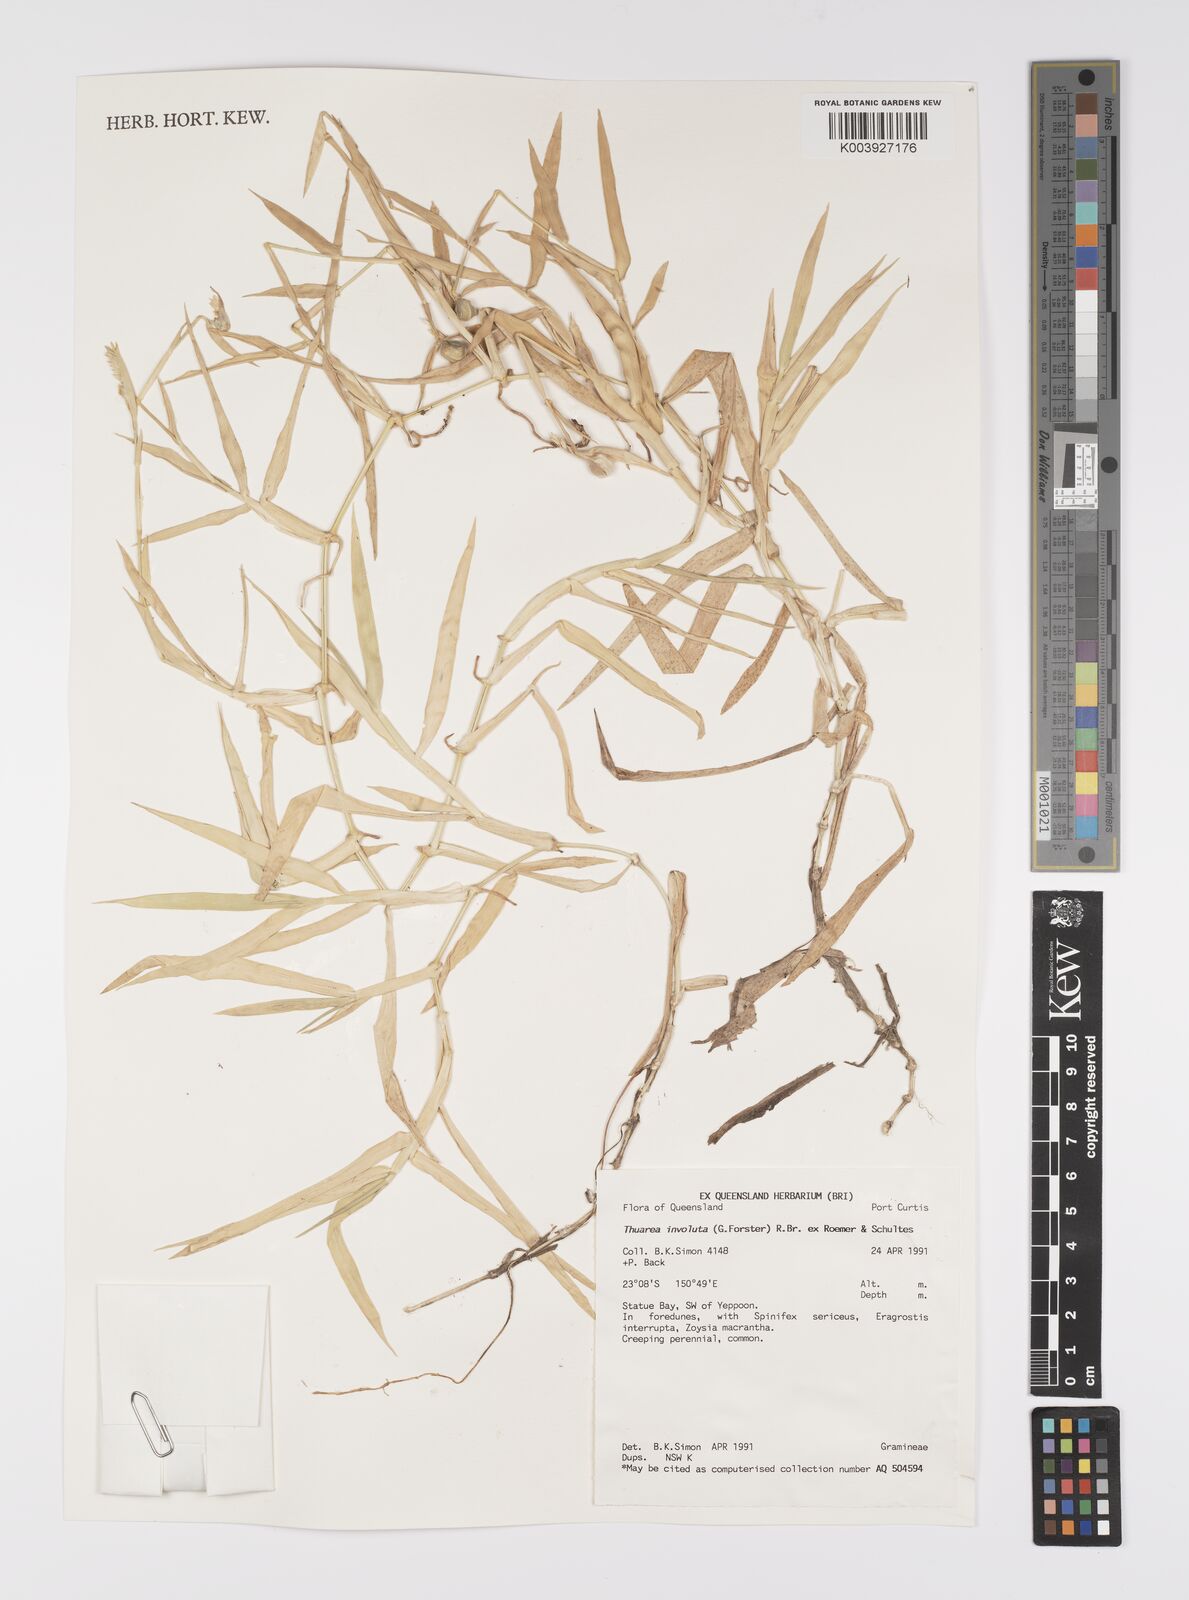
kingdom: Plantae
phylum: Tracheophyta
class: Liliopsida
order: Poales
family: Poaceae
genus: Thuarea
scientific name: Thuarea involuta
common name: Tropical beach grass
